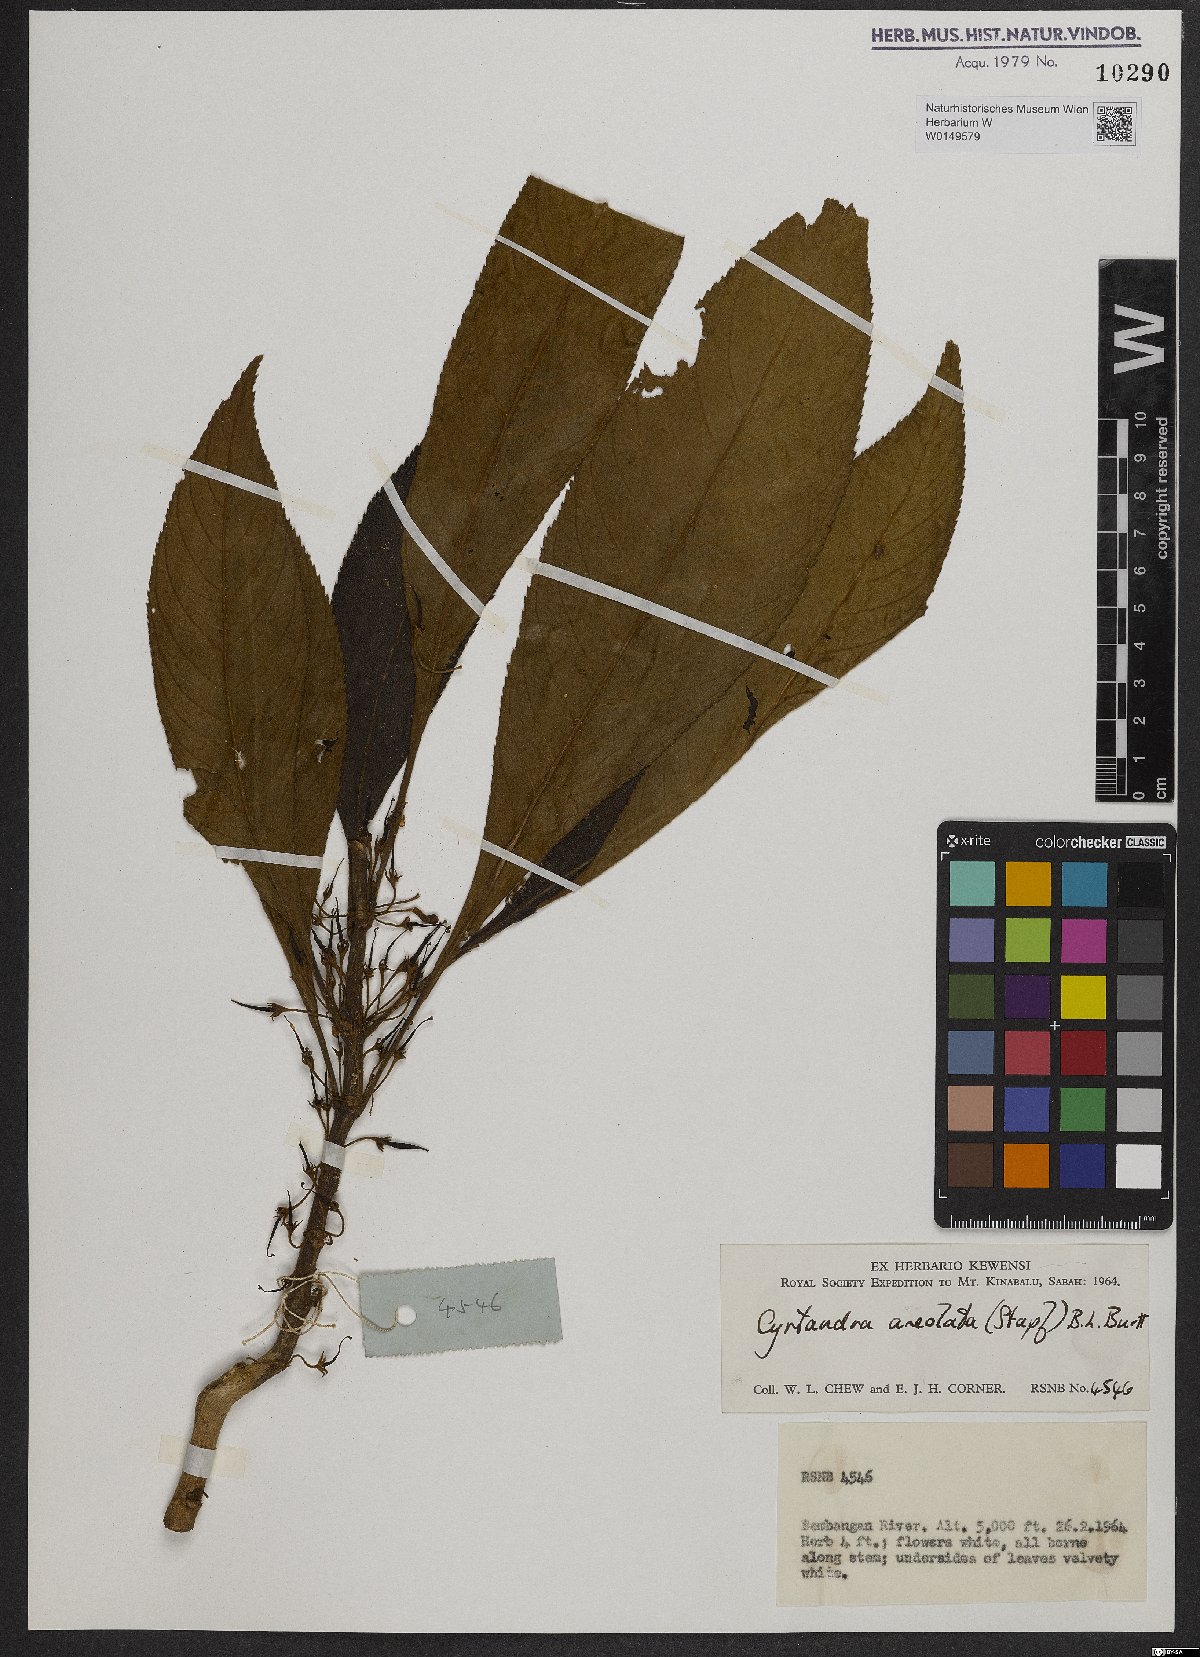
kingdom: Plantae
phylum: Tracheophyta
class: Magnoliopsida
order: Lamiales
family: Gesneriaceae
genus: Cyrtandra
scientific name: Cyrtandra areolata
